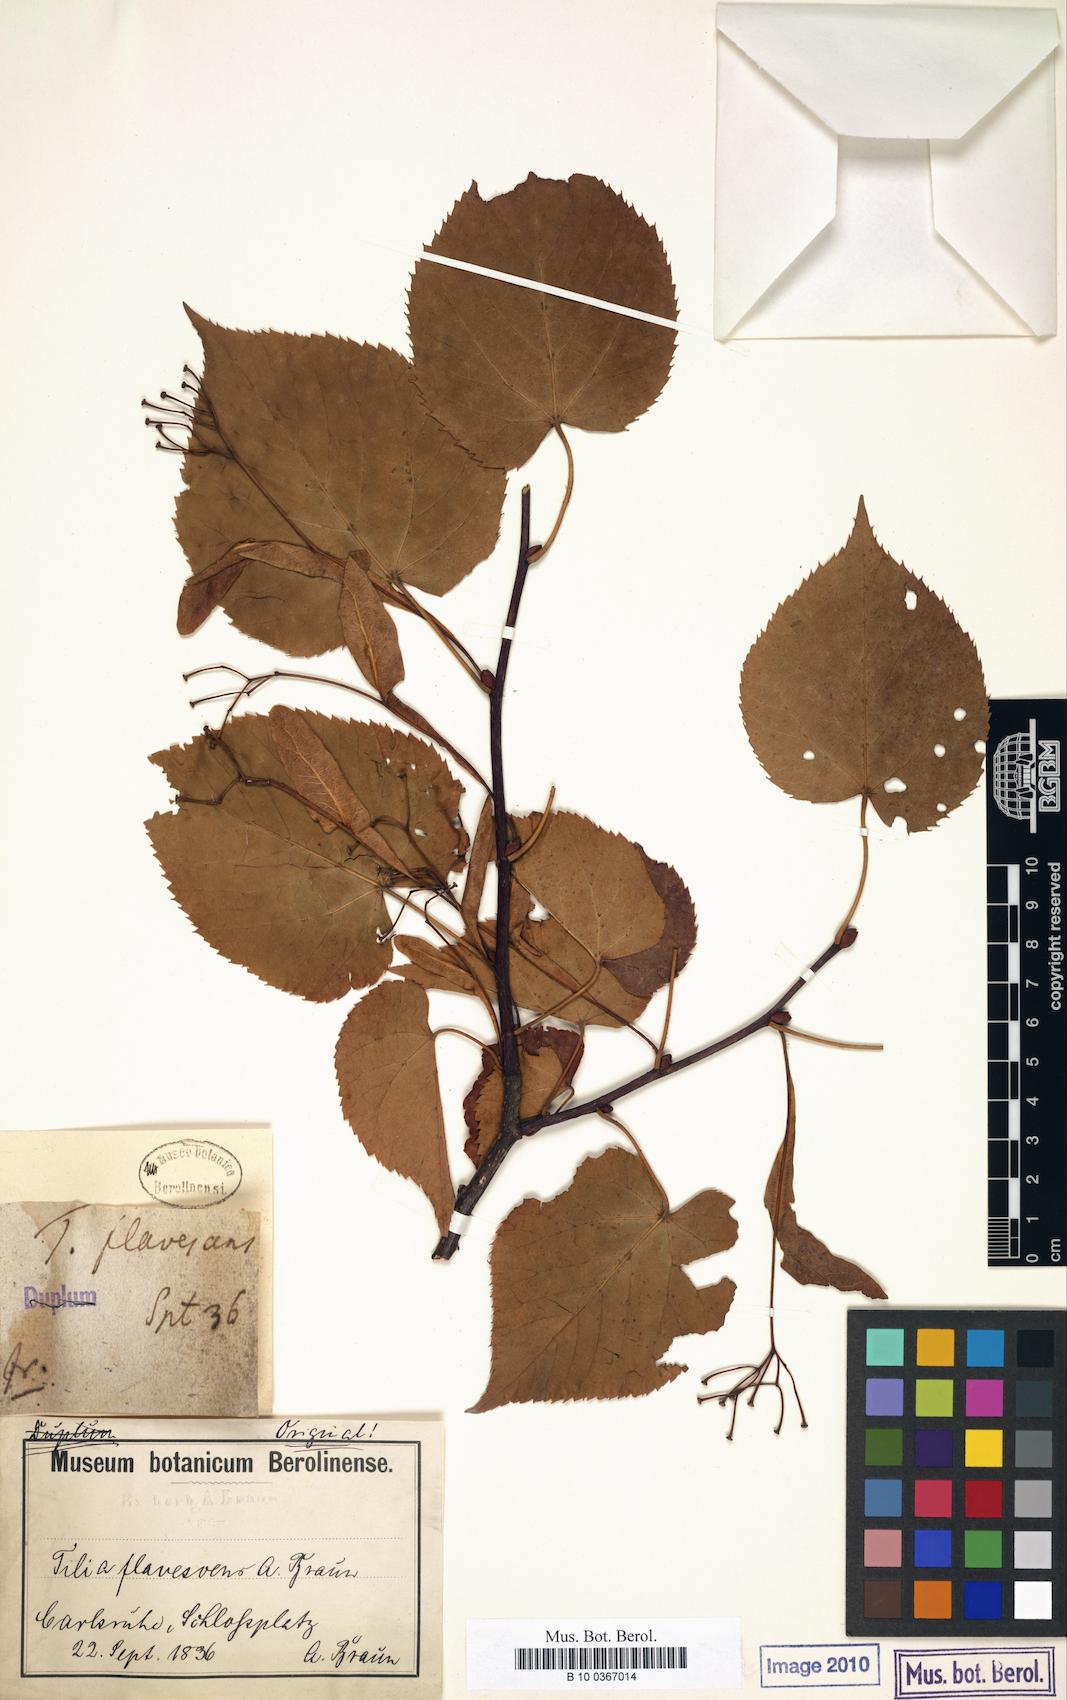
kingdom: Plantae
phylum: Tracheophyta
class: Magnoliopsida
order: Malvales
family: Malvaceae
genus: Tilia
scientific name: Tilia flavescens
